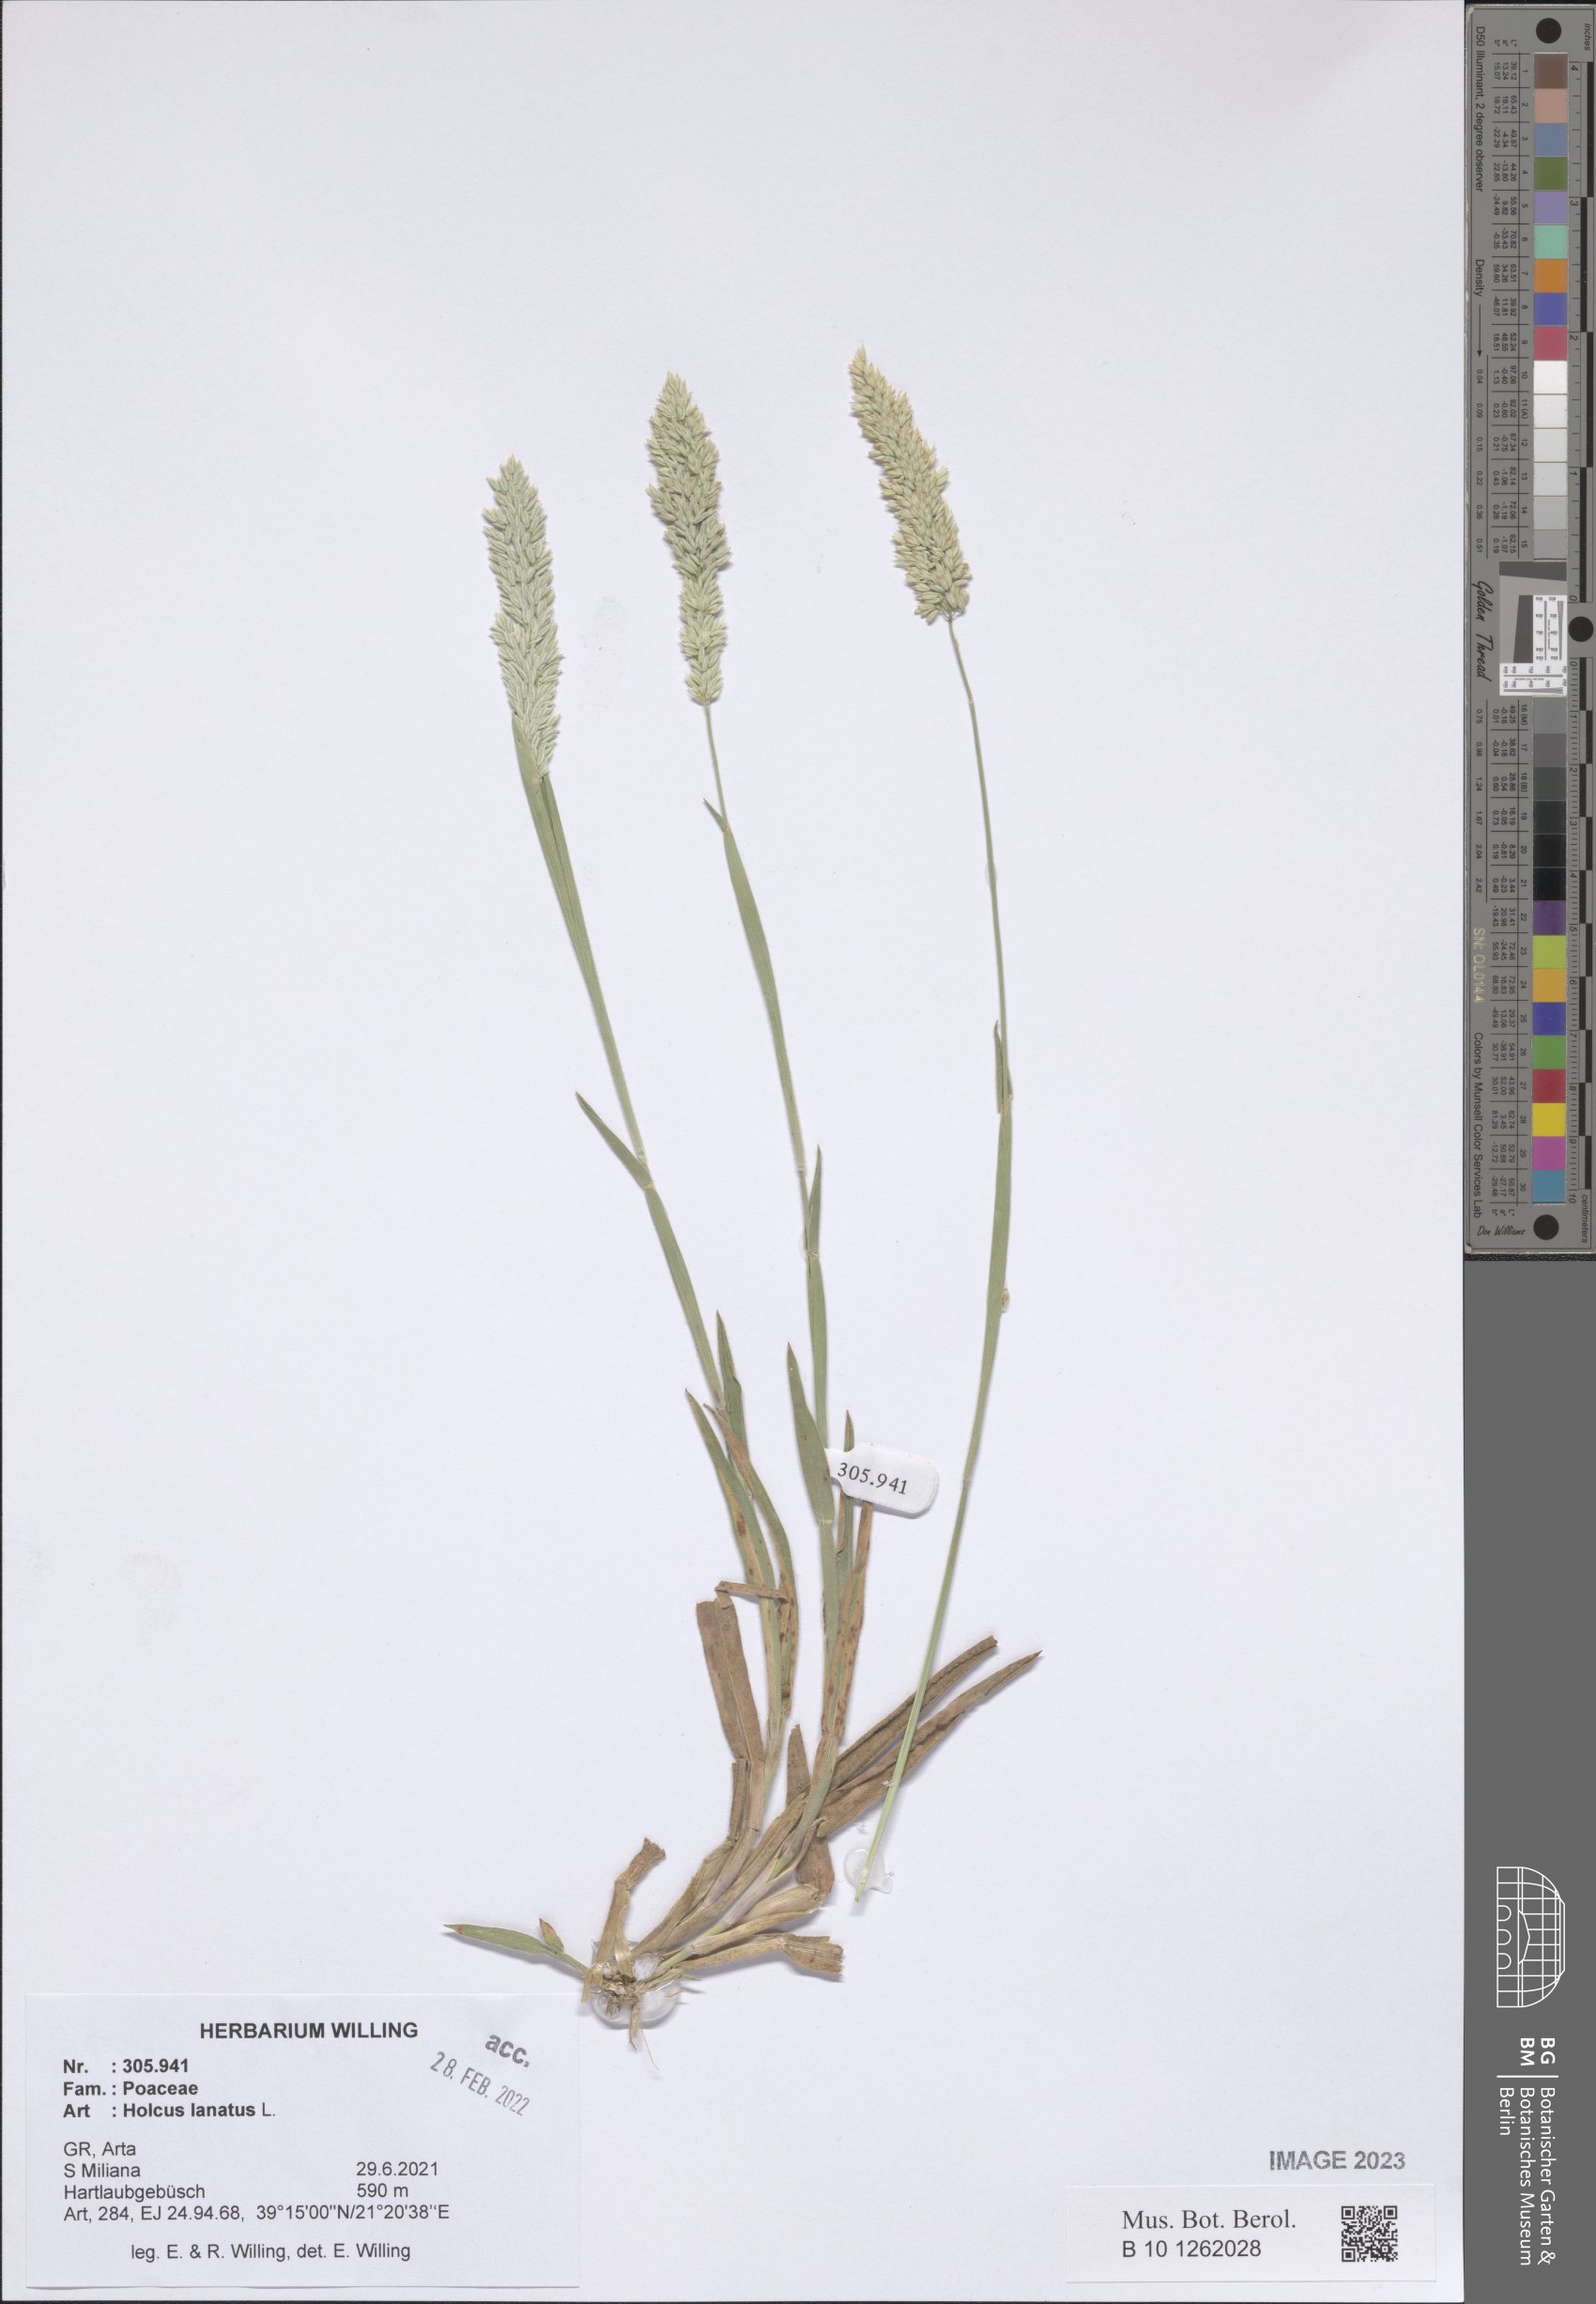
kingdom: Plantae
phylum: Tracheophyta
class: Liliopsida
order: Poales
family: Poaceae
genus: Holcus
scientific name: Holcus lanatus
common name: Yorkshire-fog
